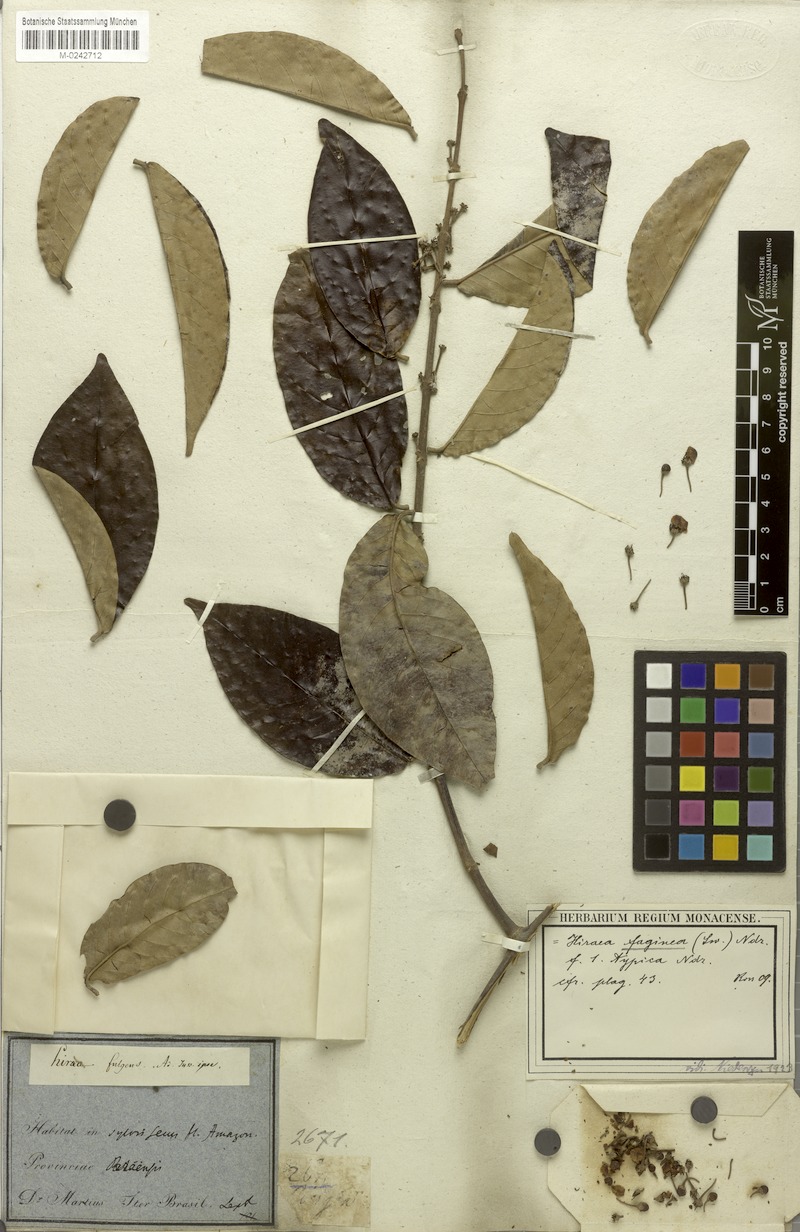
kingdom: Plantae
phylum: Tracheophyta
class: Magnoliopsida
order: Malpighiales
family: Malpighiaceae
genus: Hiraea
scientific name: Hiraea faginea
